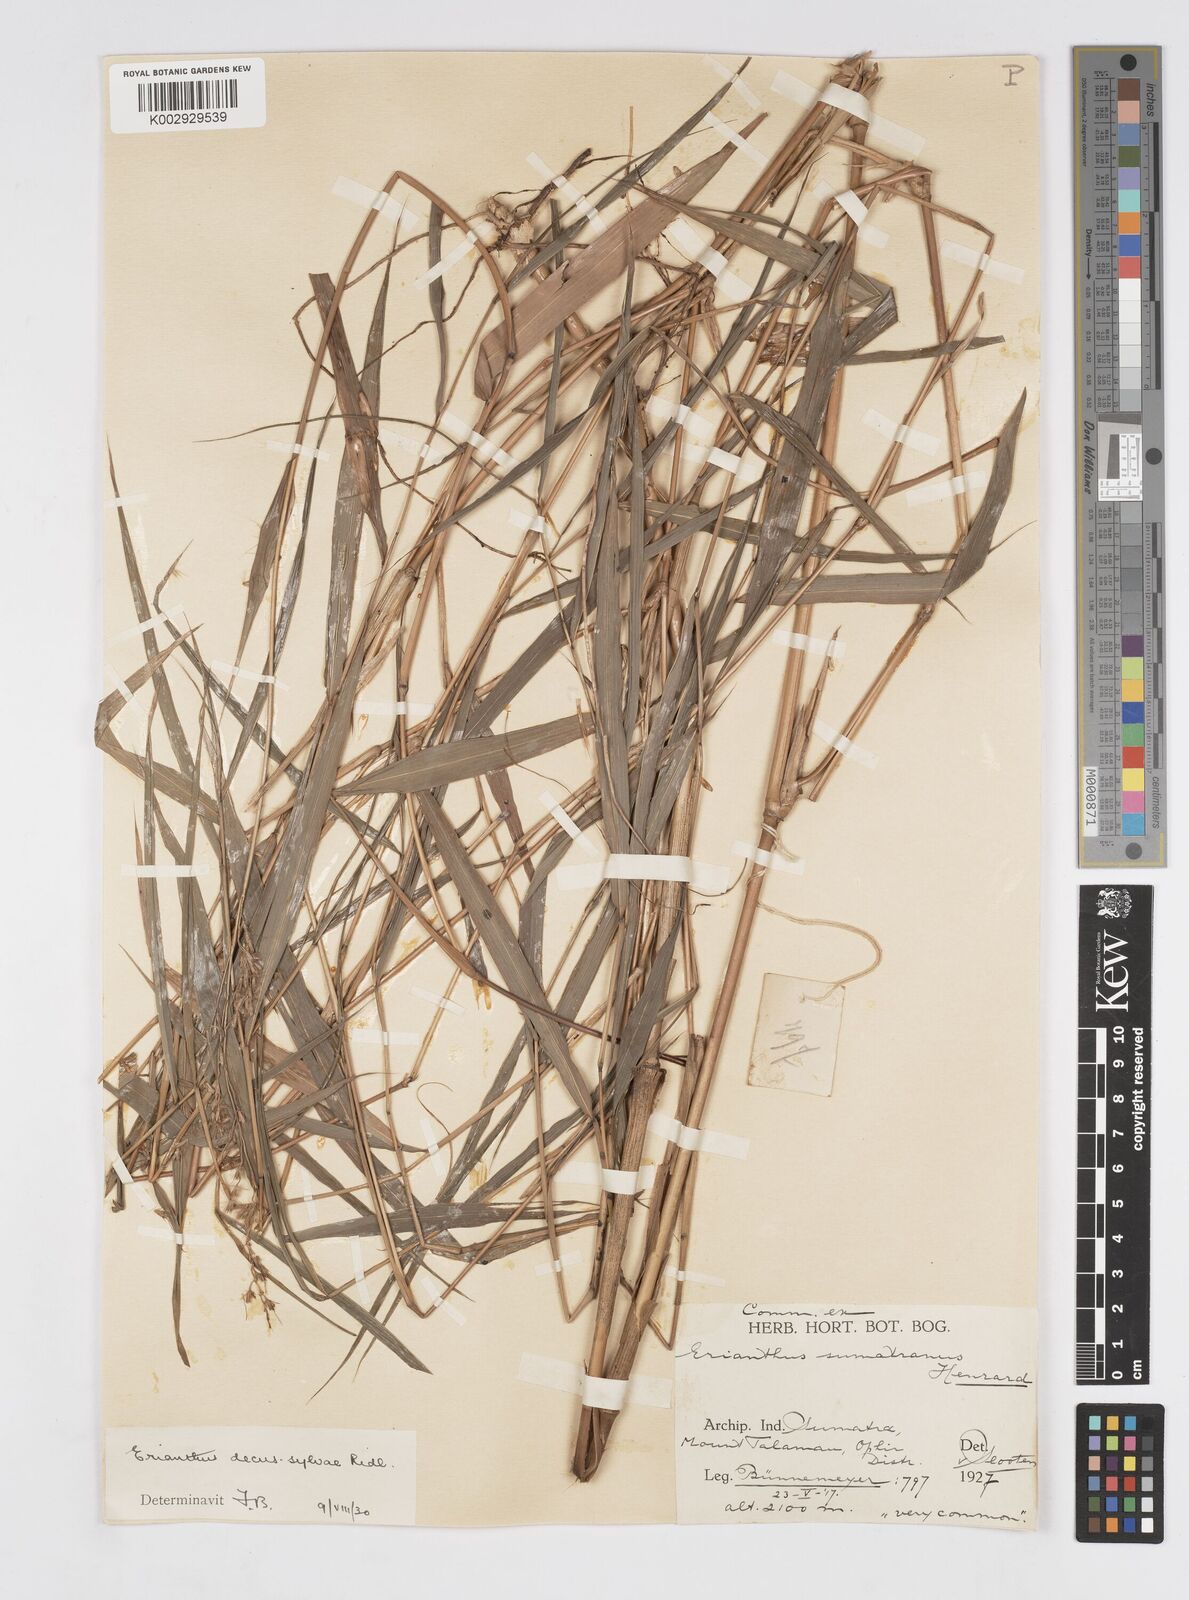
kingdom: Plantae
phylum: Tracheophyta
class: Liliopsida
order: Poales
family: Poaceae
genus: Saccharum
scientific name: Saccharum
